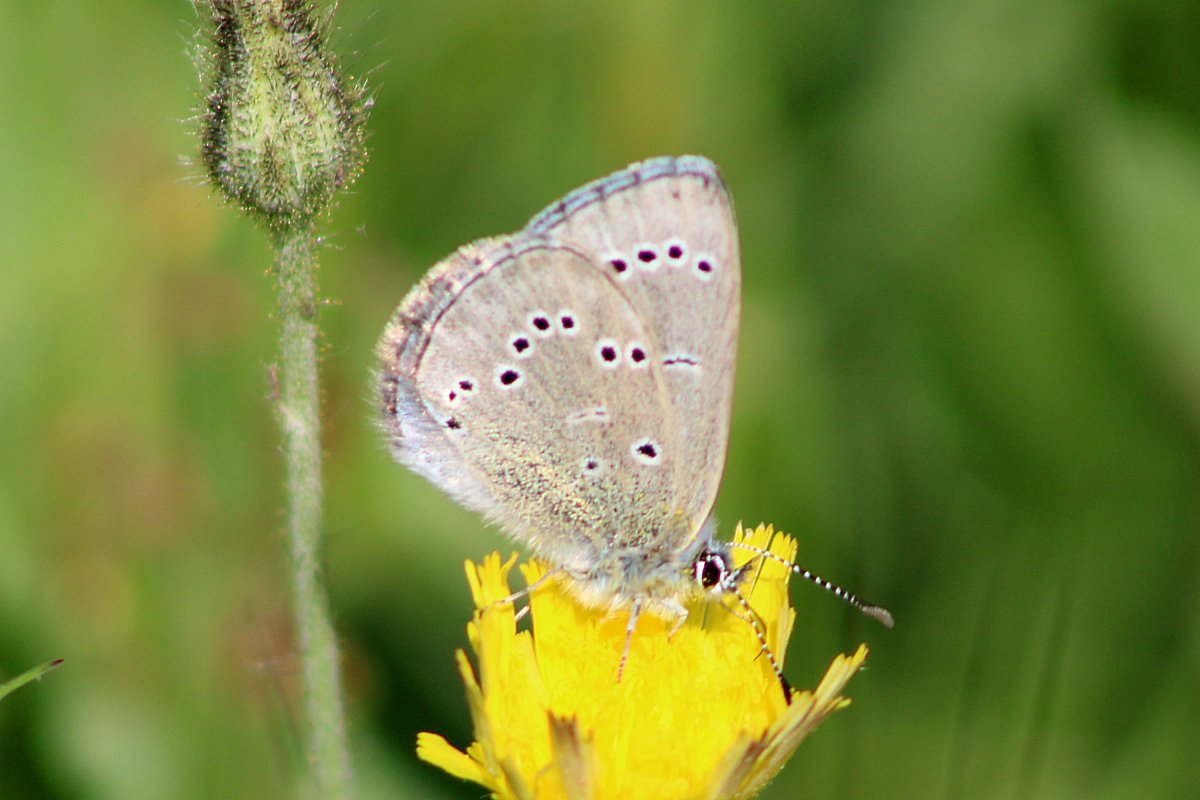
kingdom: Animalia
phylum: Arthropoda
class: Insecta
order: Lepidoptera
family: Lycaenidae
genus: Glaucopsyche
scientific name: Glaucopsyche lygdamus
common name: Silvery Blue
